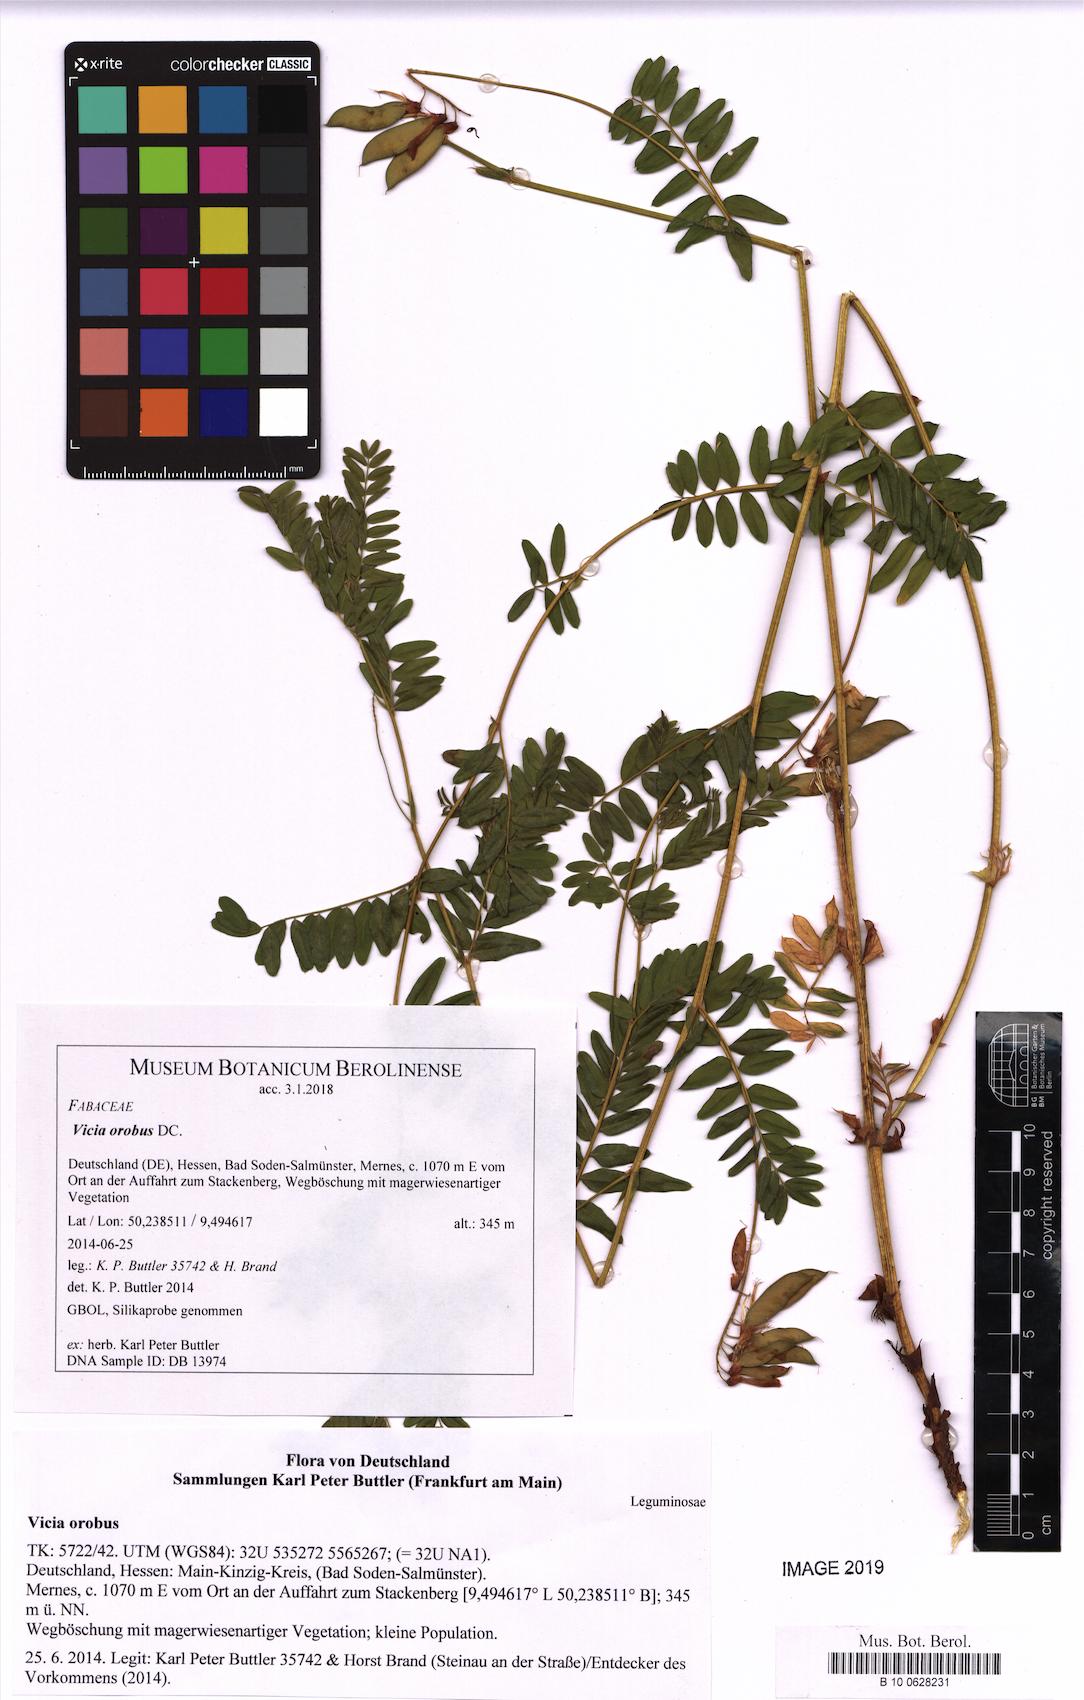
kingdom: Plantae
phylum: Tracheophyta
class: Magnoliopsida
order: Fabales
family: Fabaceae
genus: Vicia
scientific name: Vicia orobus
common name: Wood bitter-vetch
